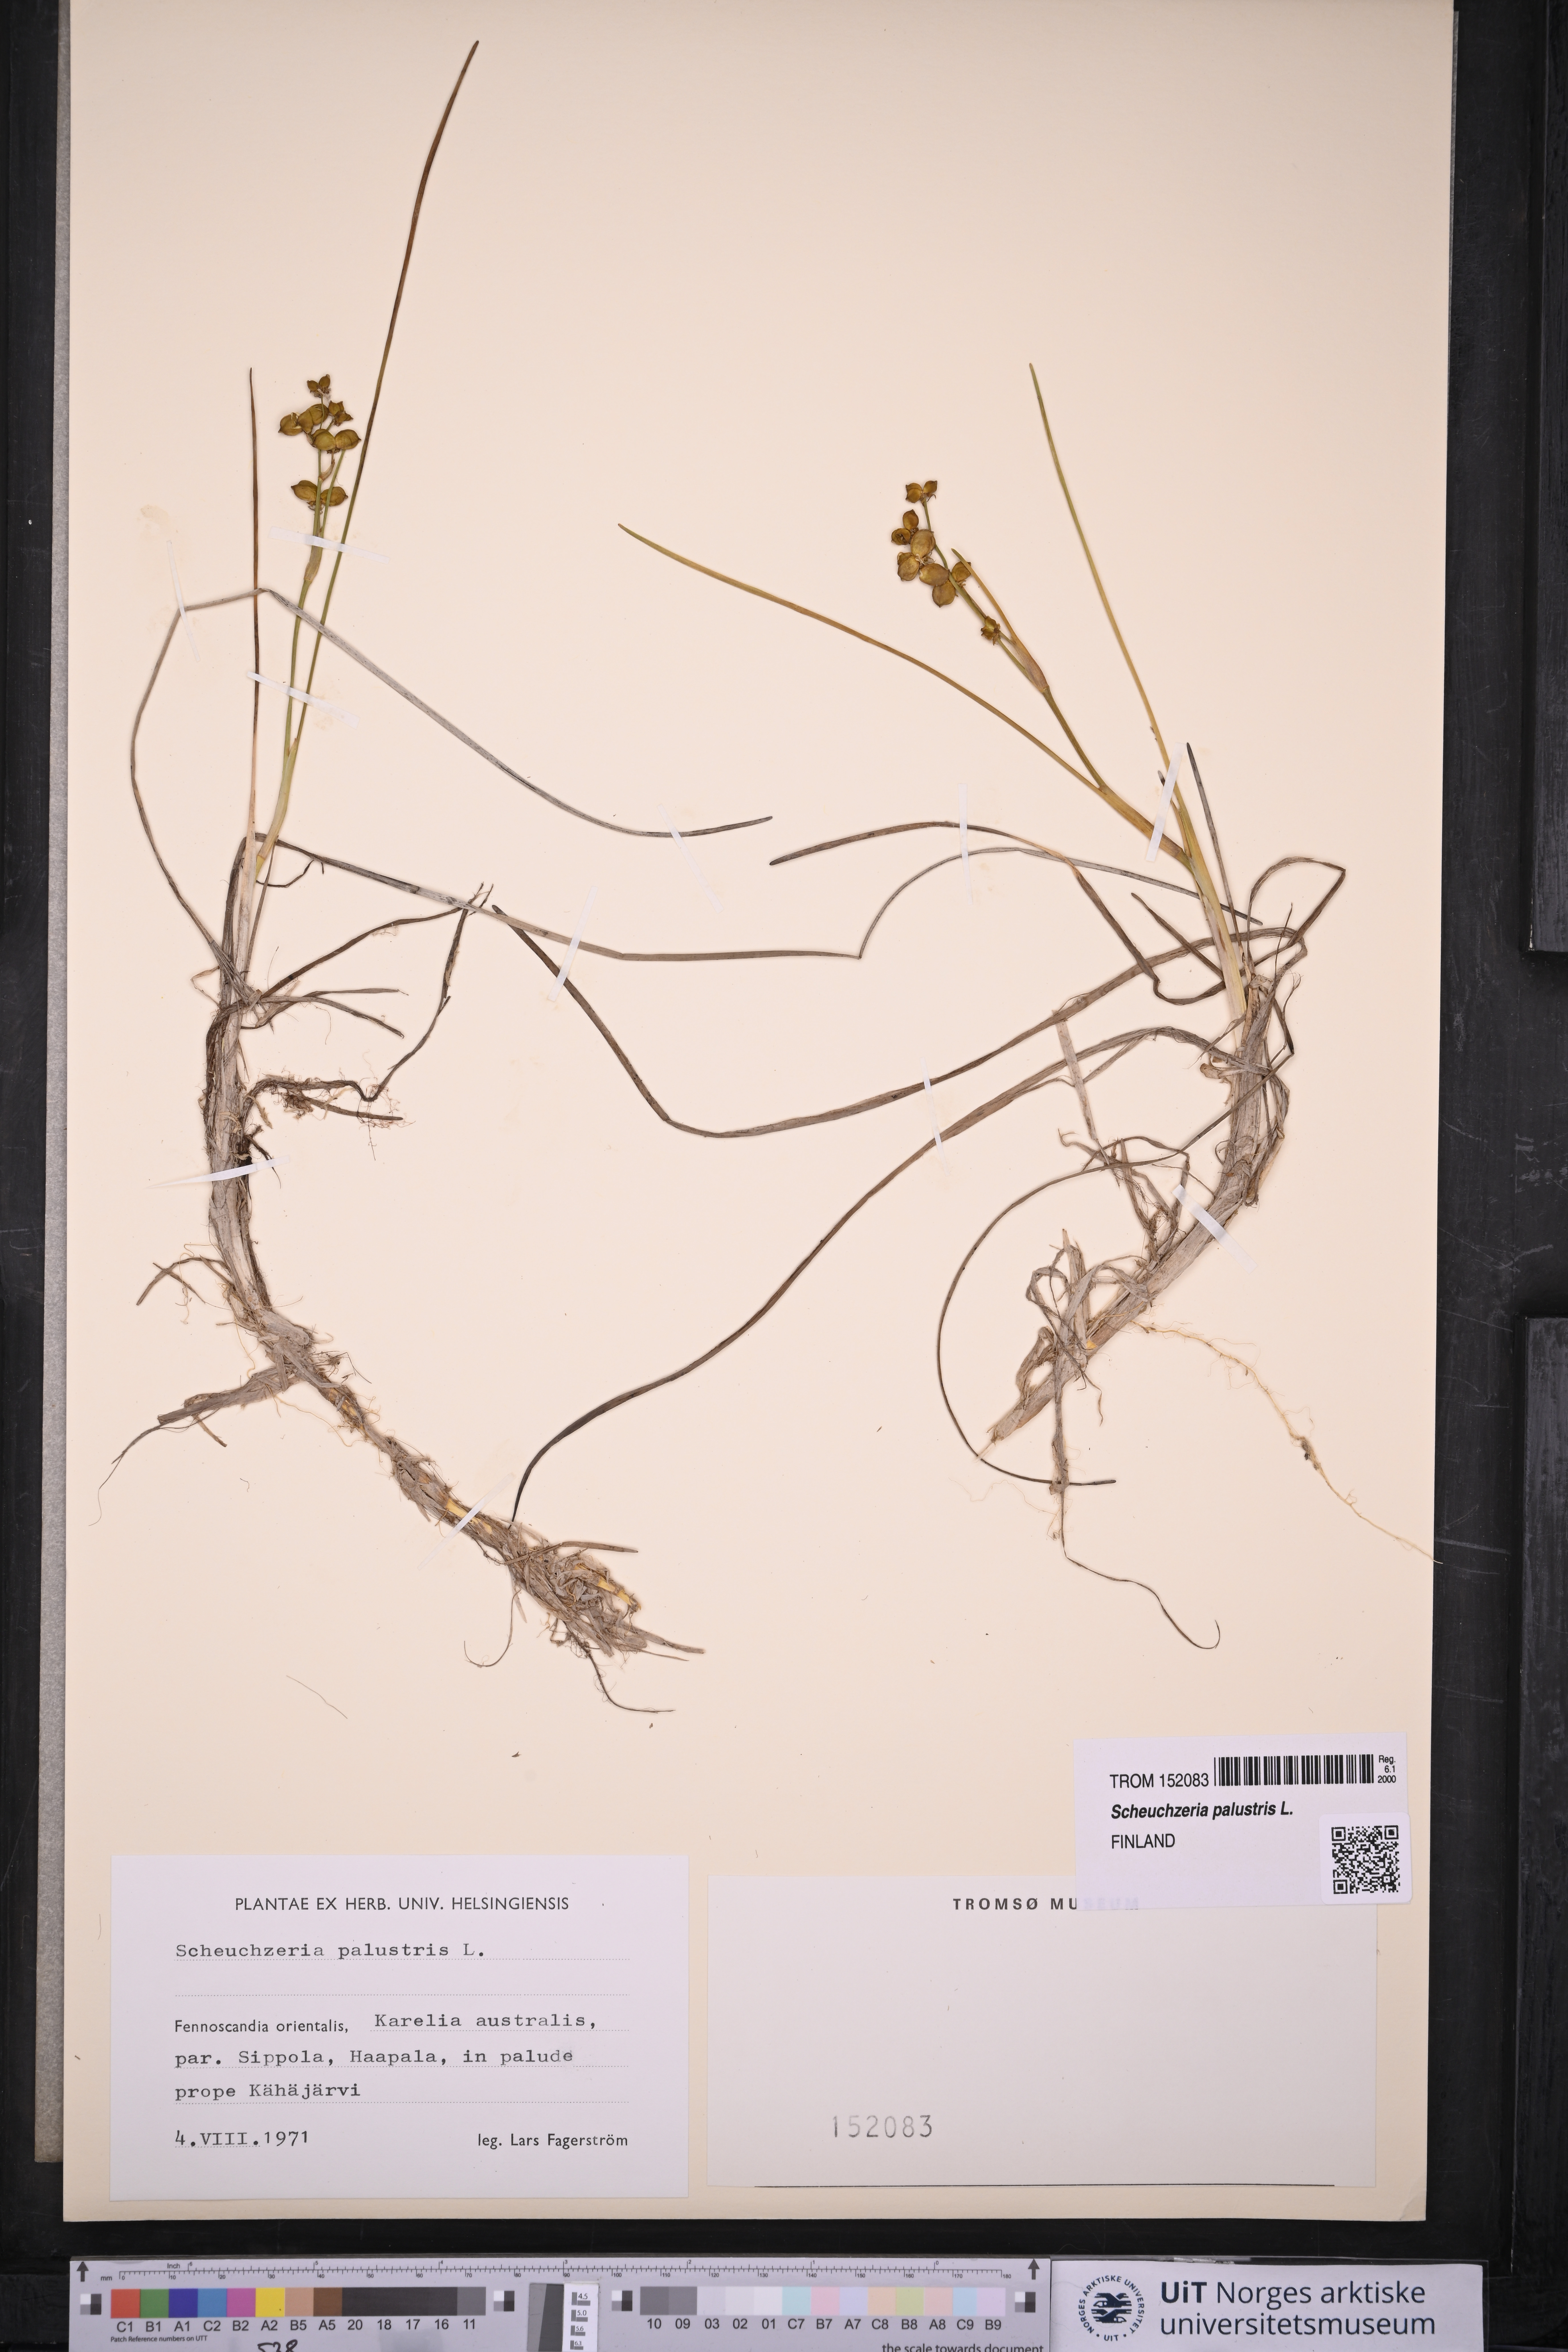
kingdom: Plantae
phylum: Tracheophyta
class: Liliopsida
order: Alismatales
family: Scheuchzeriaceae
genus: Scheuchzeria
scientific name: Scheuchzeria palustris
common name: Rannoch-rush
